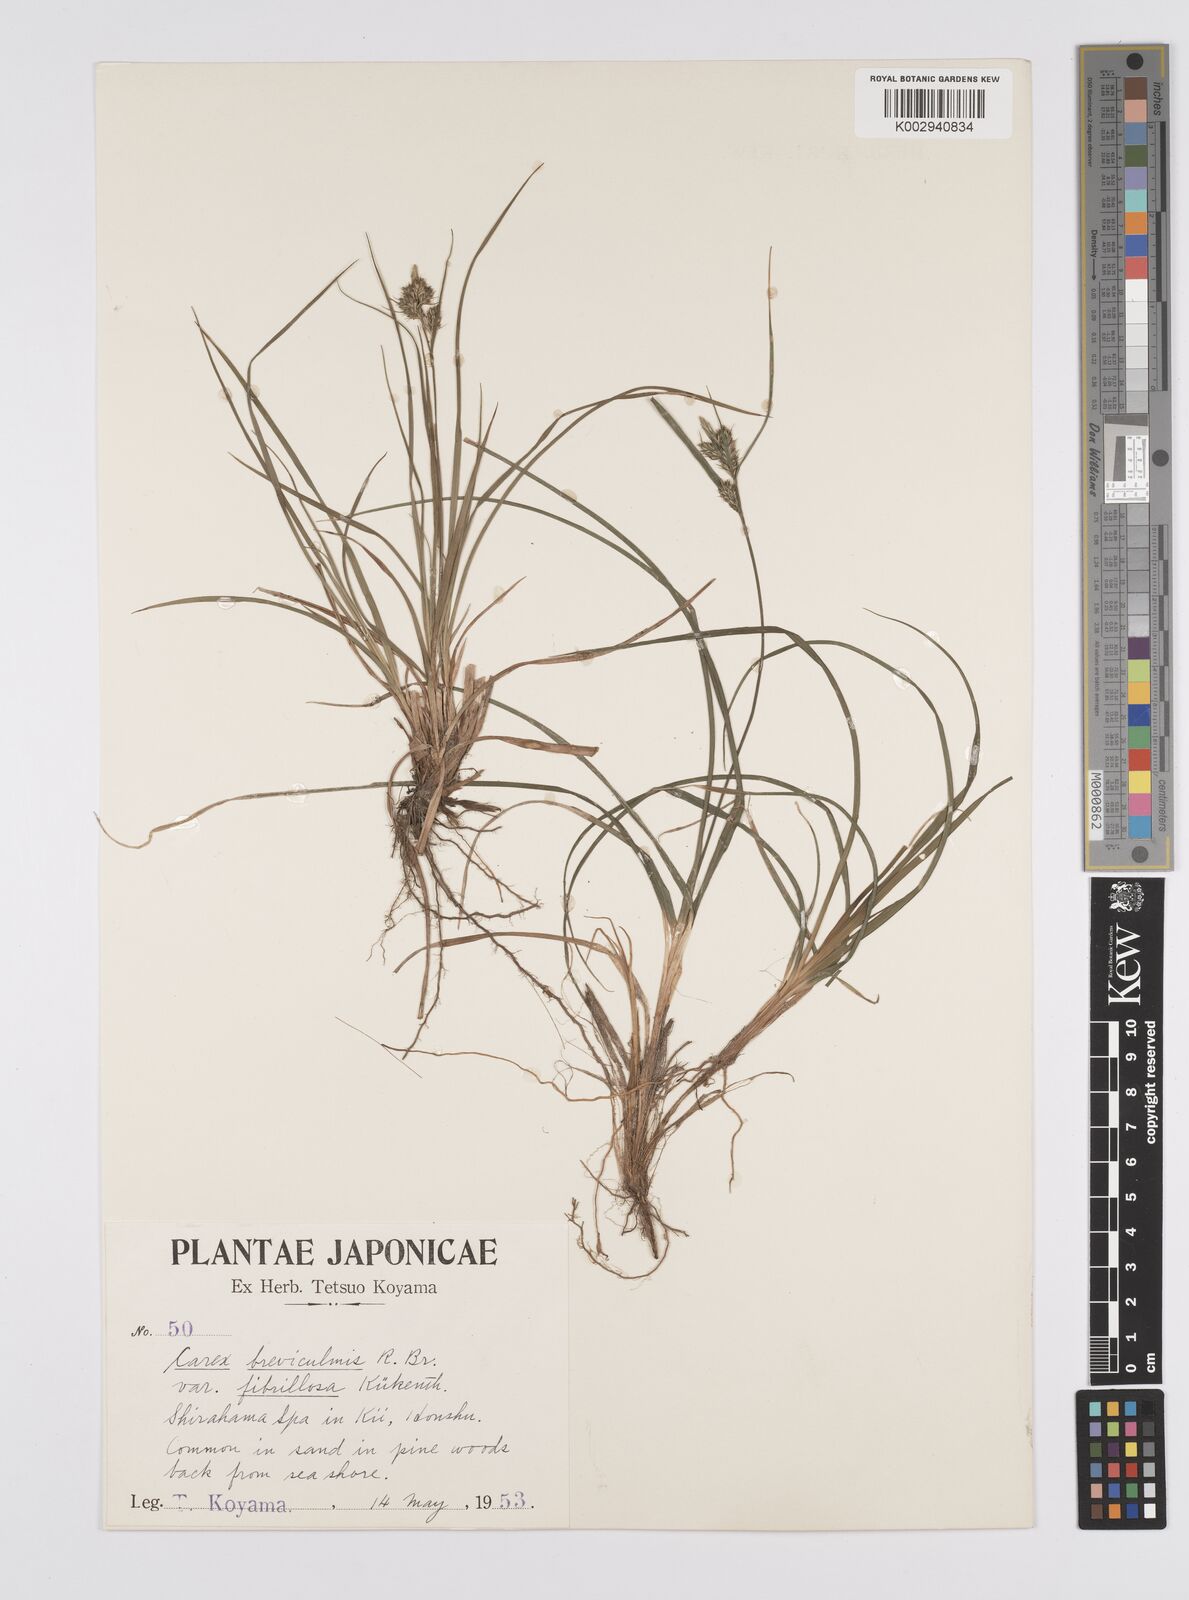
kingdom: Plantae
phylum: Tracheophyta
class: Liliopsida
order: Poales
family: Cyperaceae
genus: Carex
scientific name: Carex breviculmis
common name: Asian shortstem sedge
